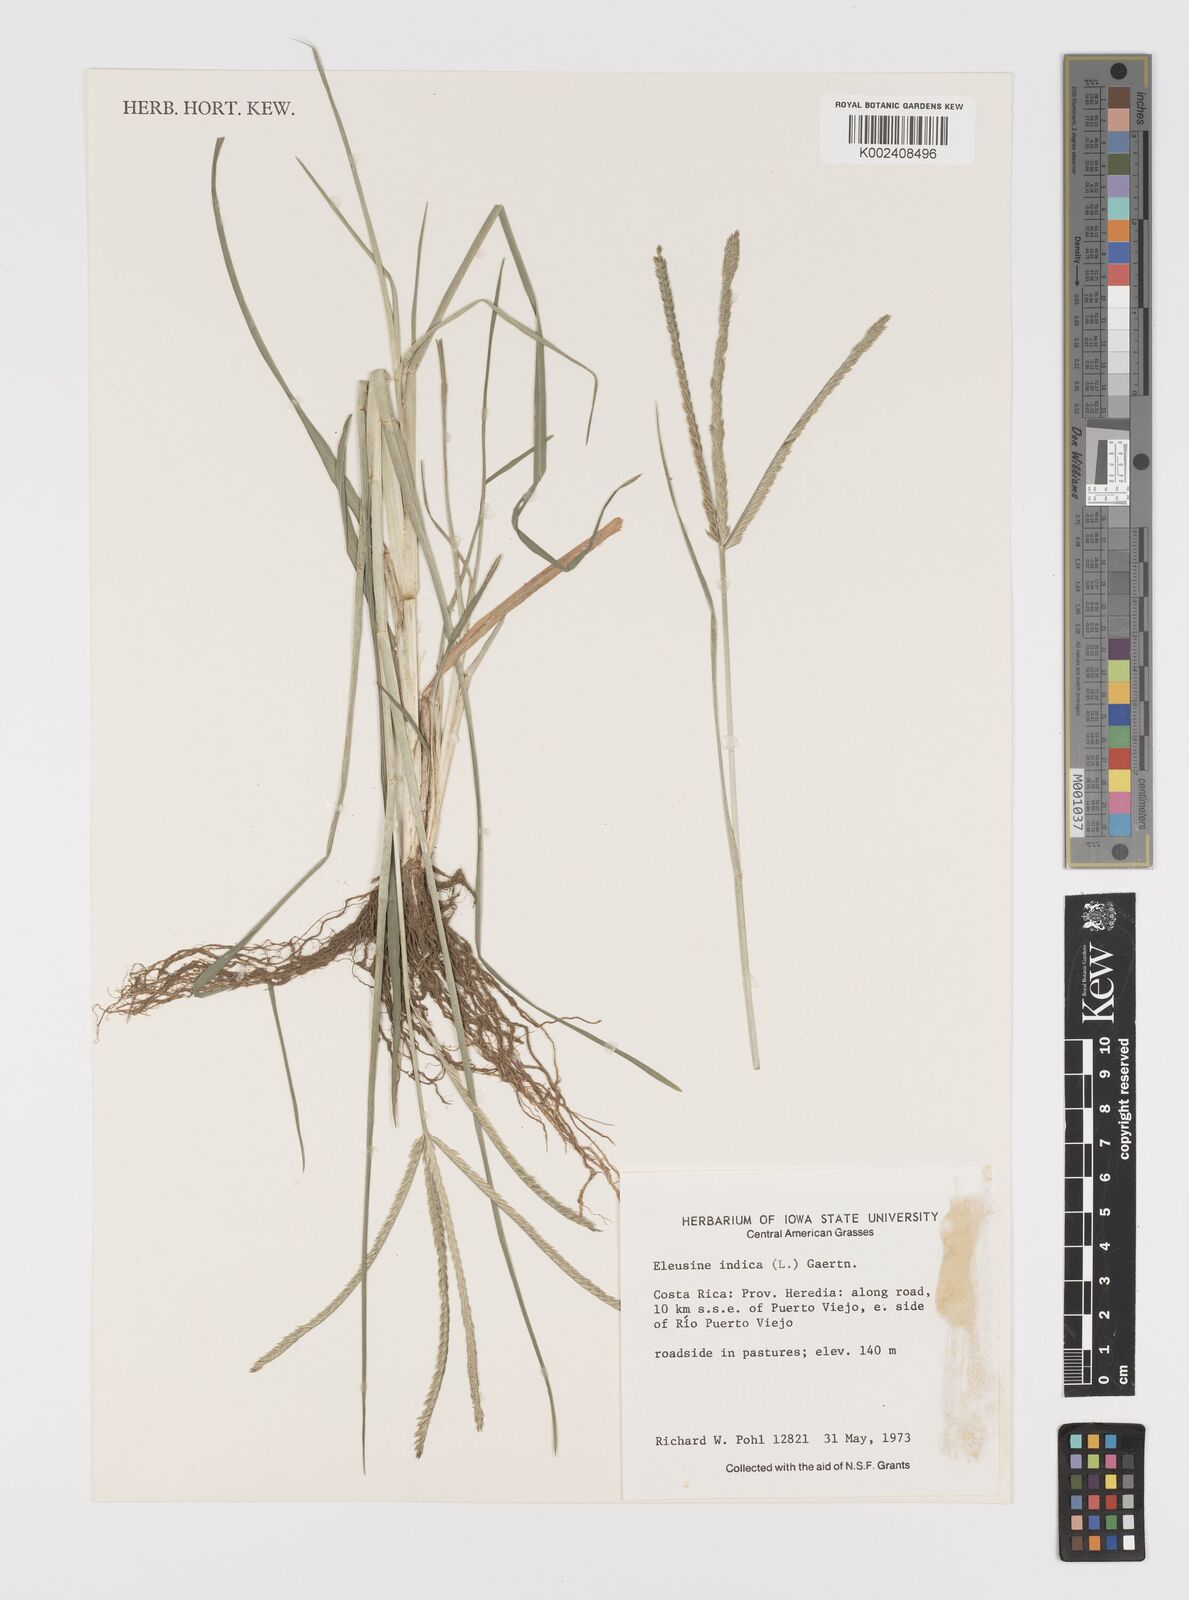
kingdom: Plantae
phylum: Tracheophyta
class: Liliopsida
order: Poales
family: Poaceae
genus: Eleusine
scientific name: Eleusine indica
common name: Yard-grass
